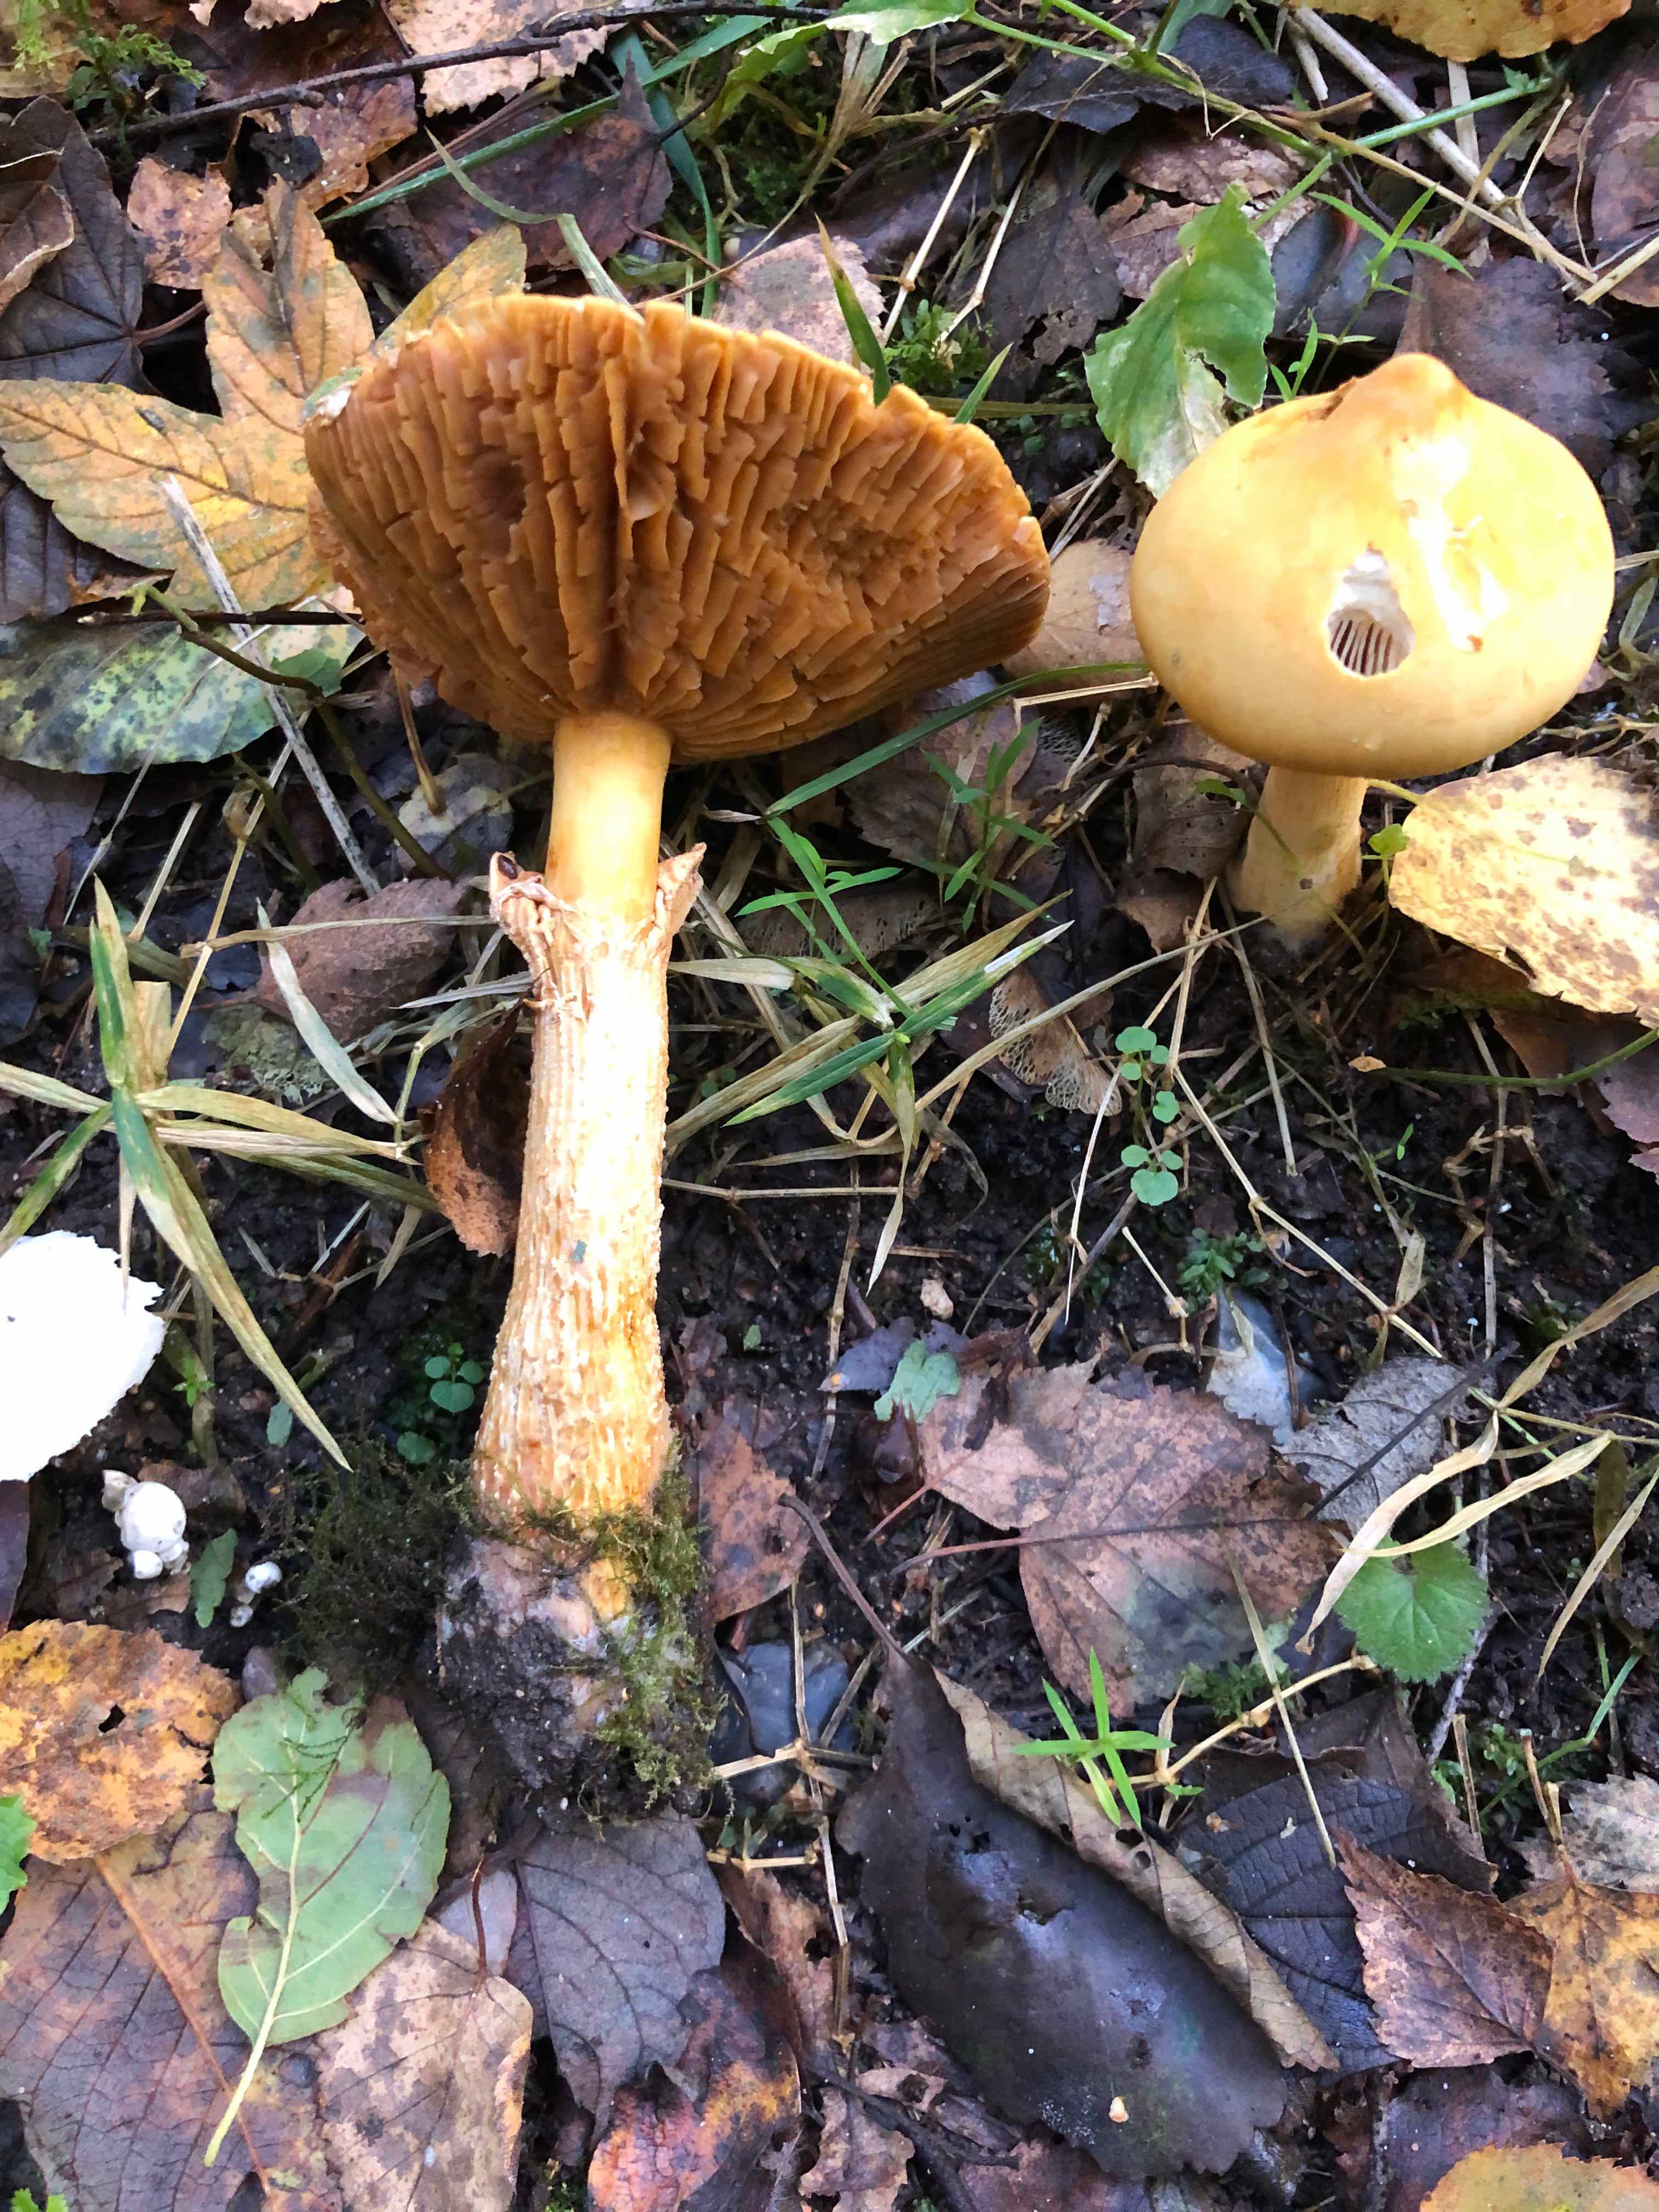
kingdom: Fungi
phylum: Basidiomycota
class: Agaricomycetes
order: Agaricales
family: Tricholomataceae
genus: Phaeolepiota
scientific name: Phaeolepiota aurea
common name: gyldenhat
